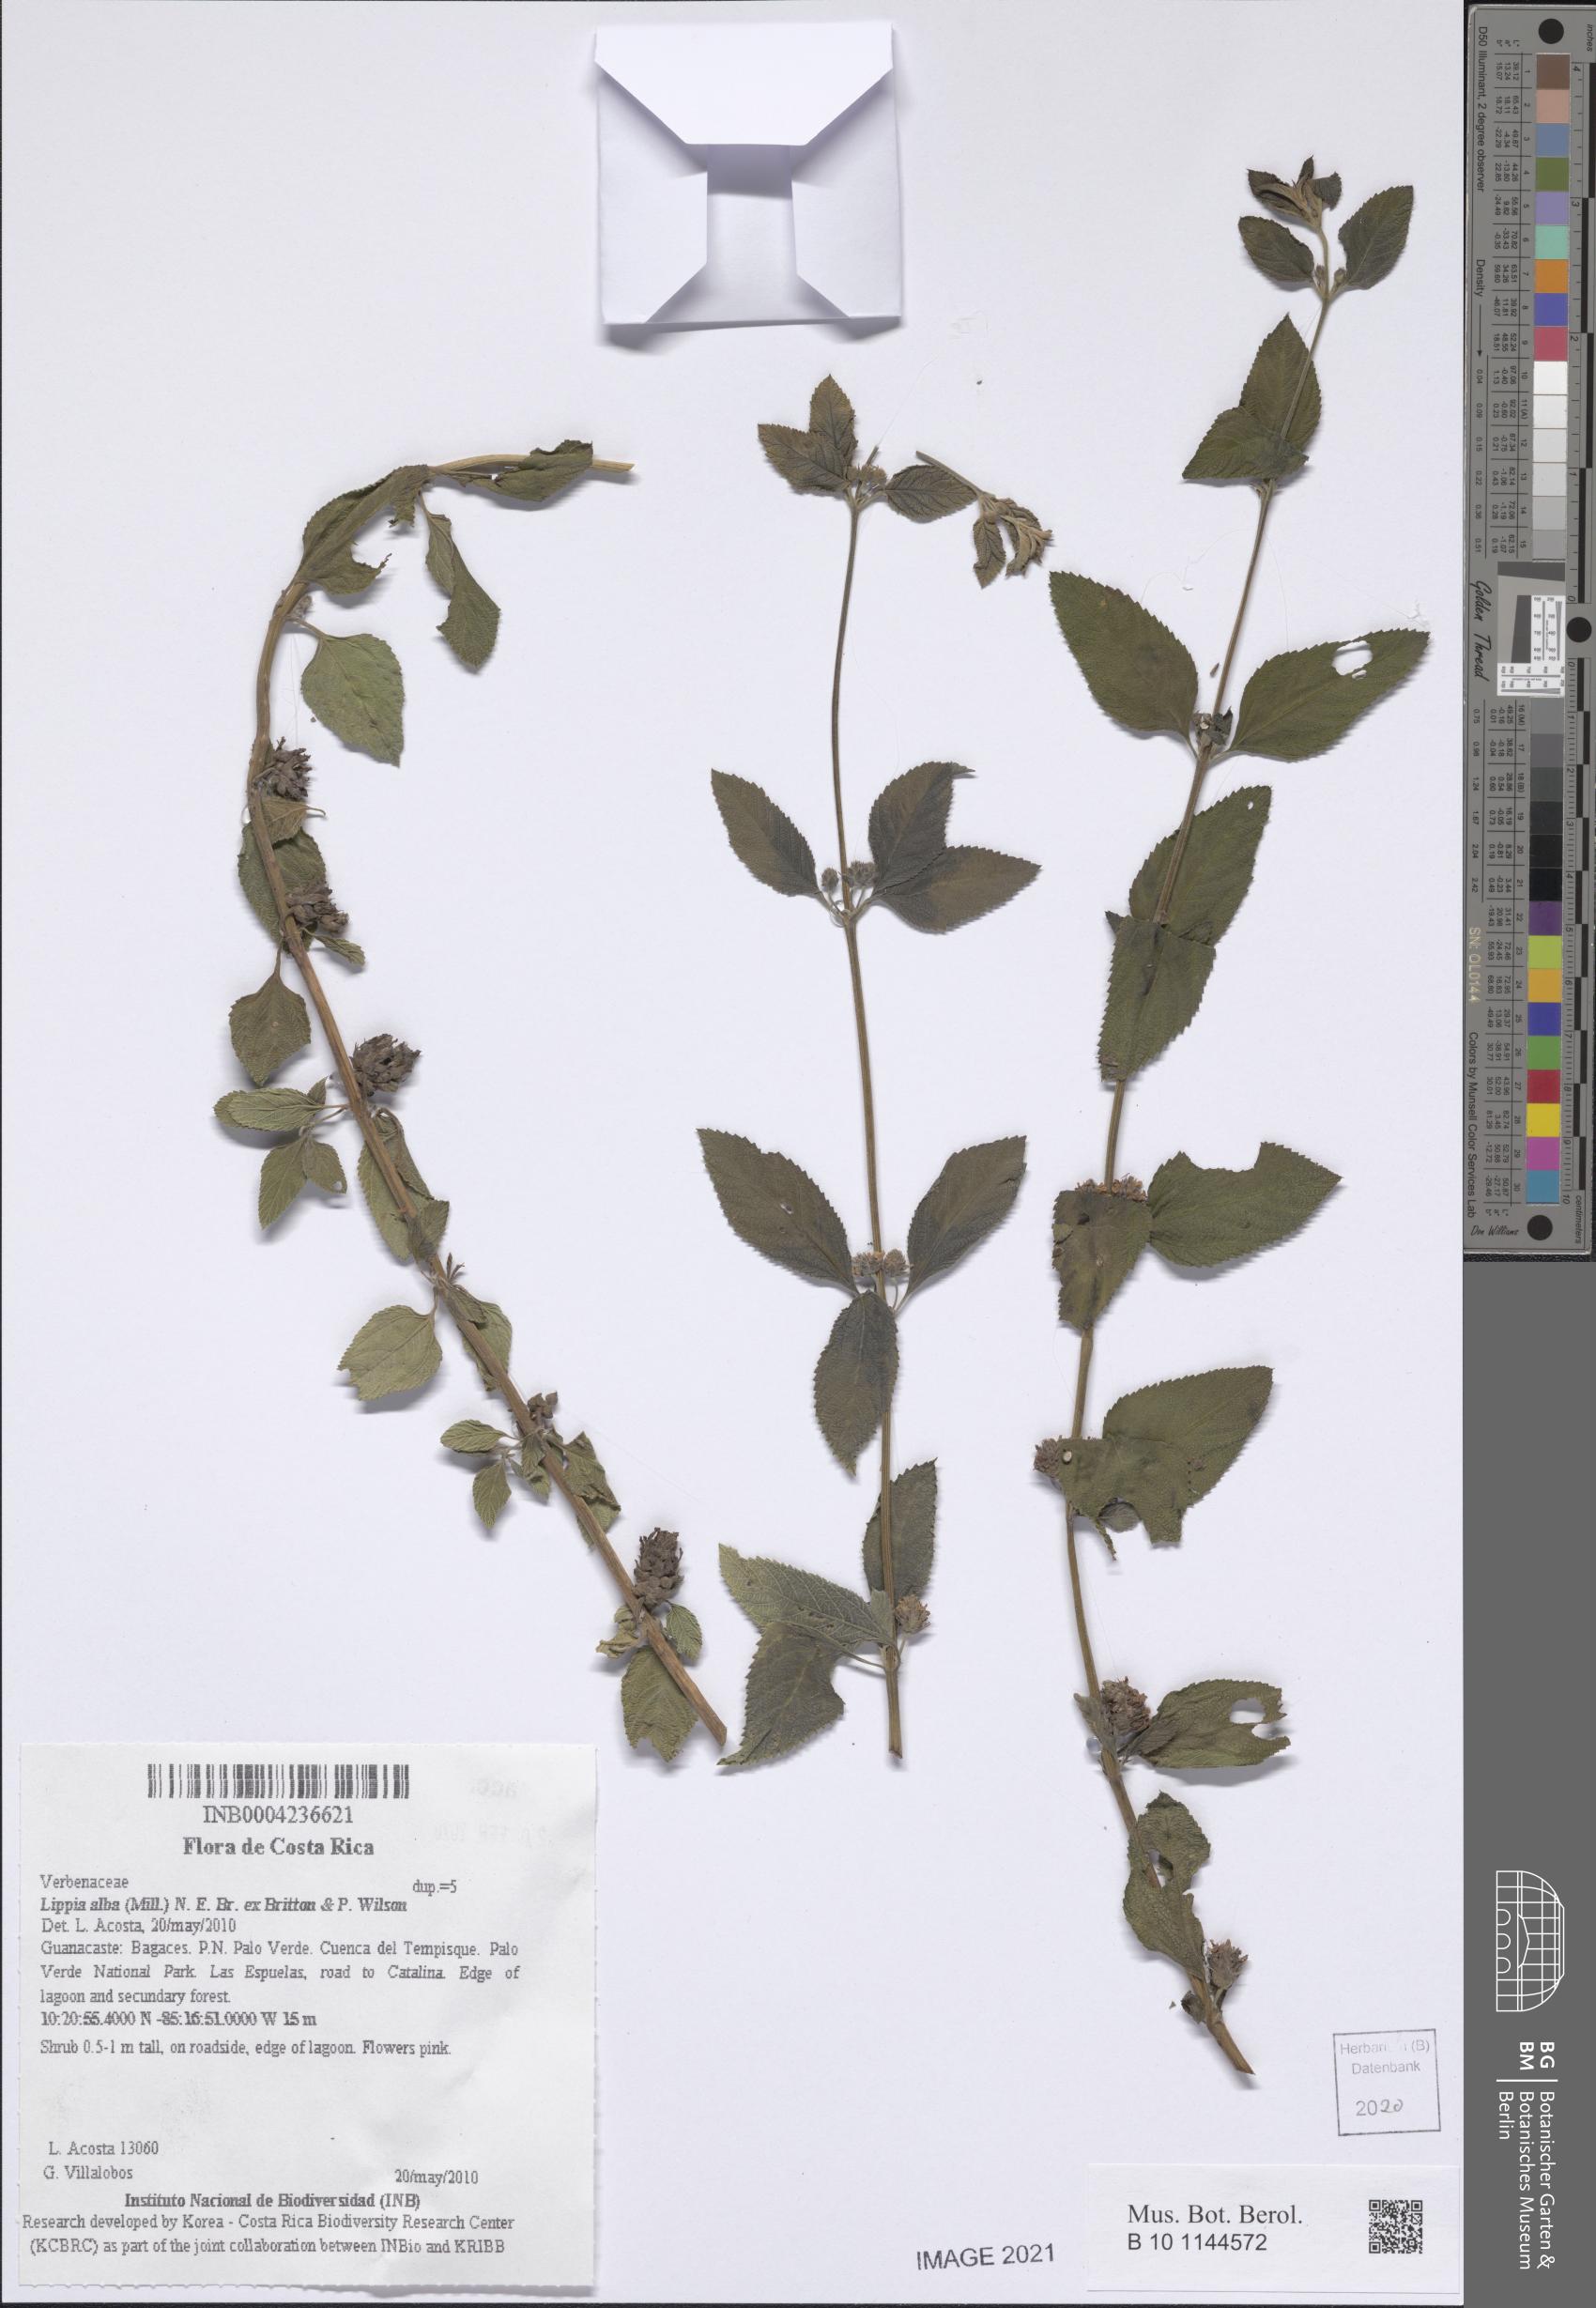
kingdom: Plantae
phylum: Tracheophyta
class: Magnoliopsida
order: Lamiales
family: Verbenaceae
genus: Lippia
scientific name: Lippia alba
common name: Bushy matgrass
